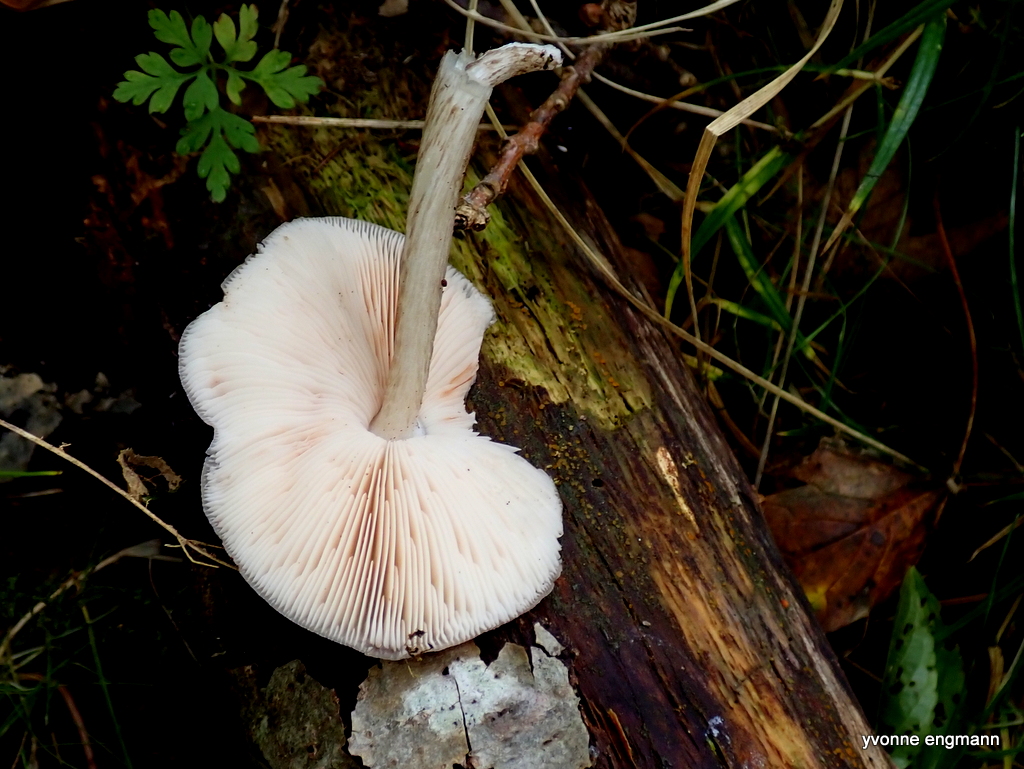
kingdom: Fungi
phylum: Basidiomycota
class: Agaricomycetes
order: Agaricales
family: Pluteaceae
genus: Pluteus
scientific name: Pluteus cervinus
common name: sodfarvet skærmhat
